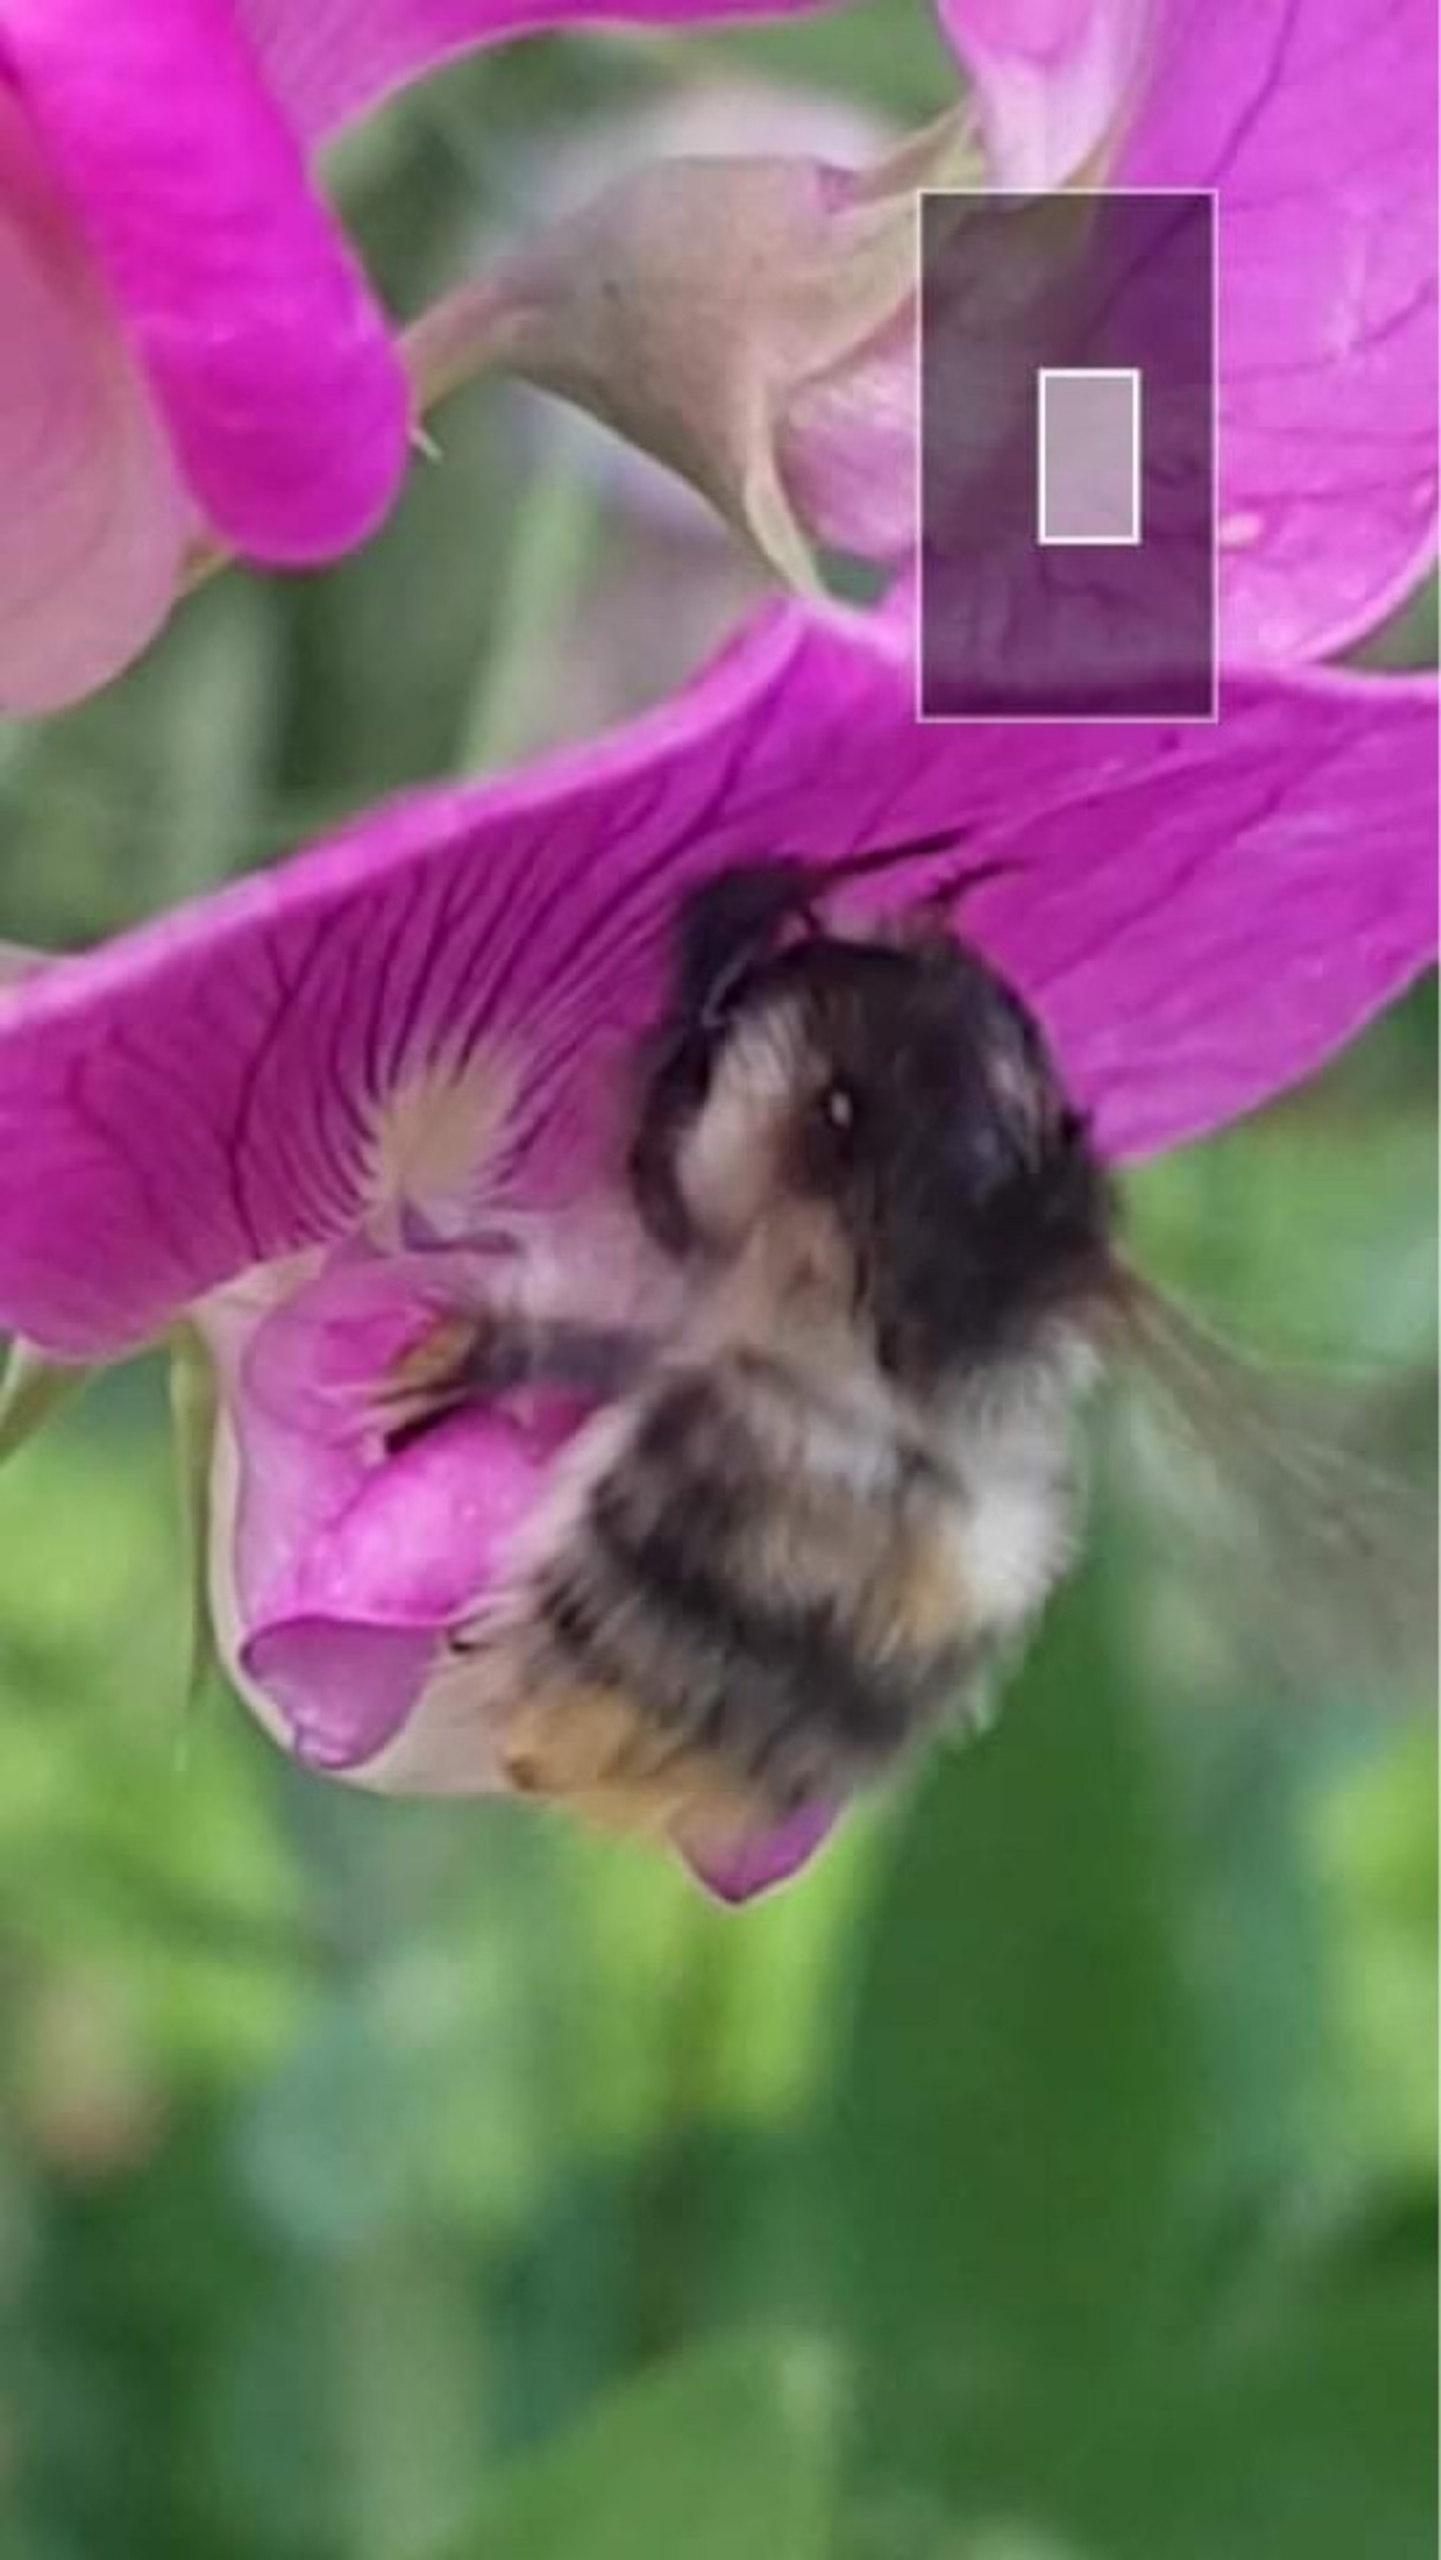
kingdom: Animalia
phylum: Arthropoda
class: Insecta
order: Hymenoptera
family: Apidae
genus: Bombus
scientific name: Bombus pascuorum
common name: Agerhumle
